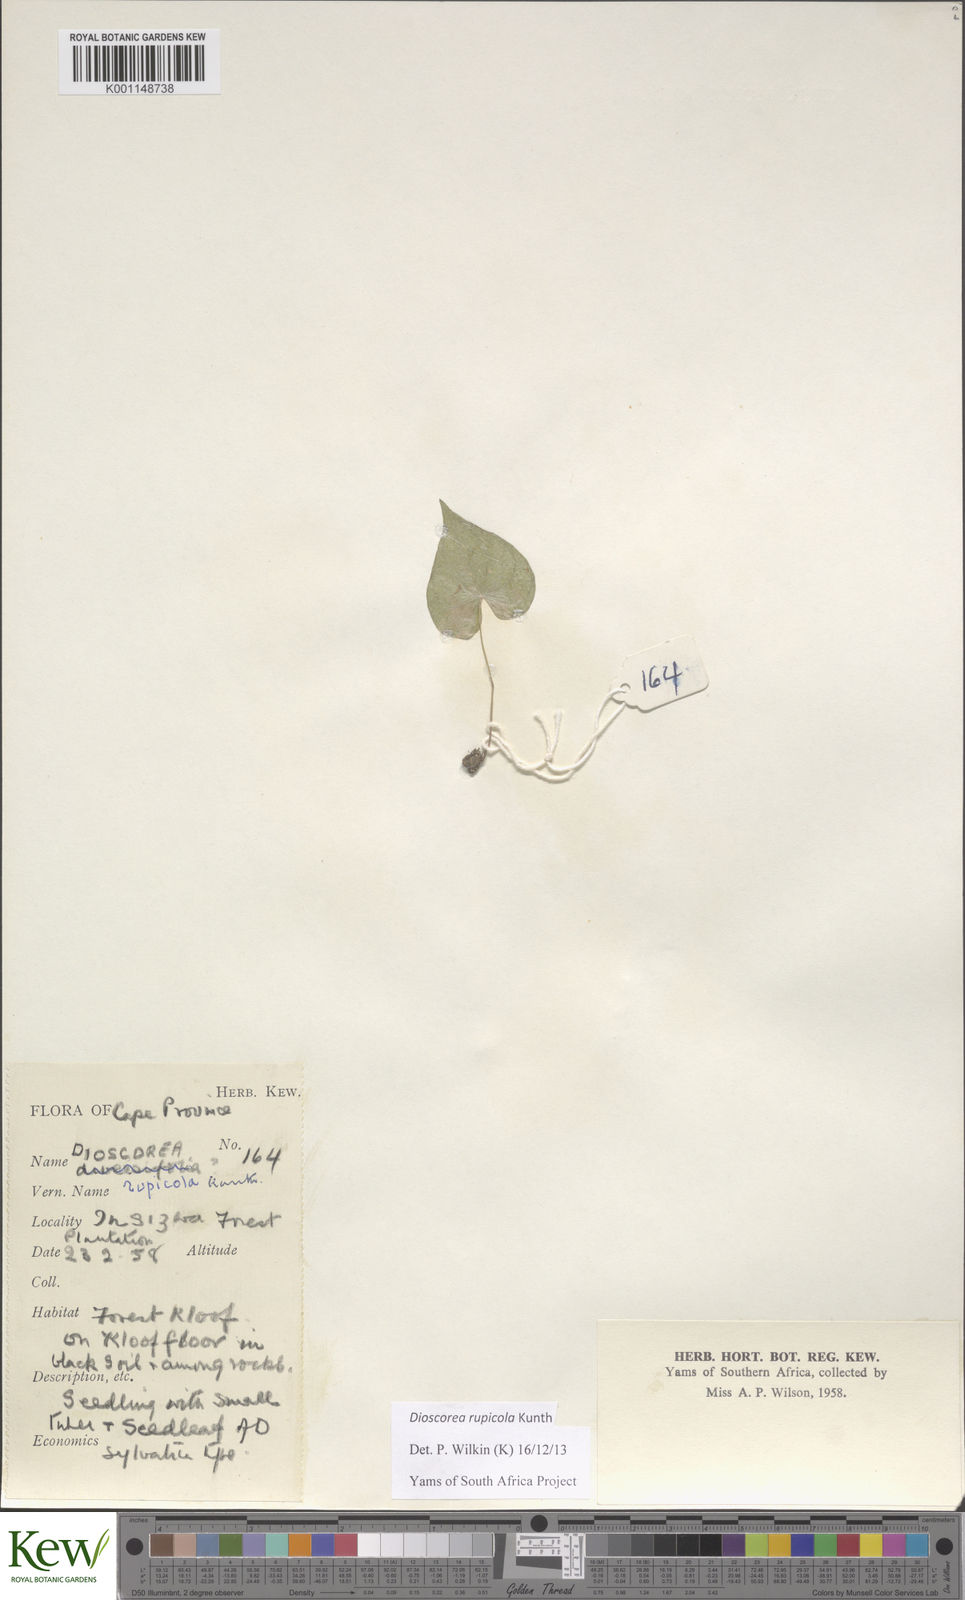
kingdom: Plantae
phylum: Tracheophyta
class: Liliopsida
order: Dioscoreales
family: Dioscoreaceae
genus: Dioscorea
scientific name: Dioscorea rupicola
